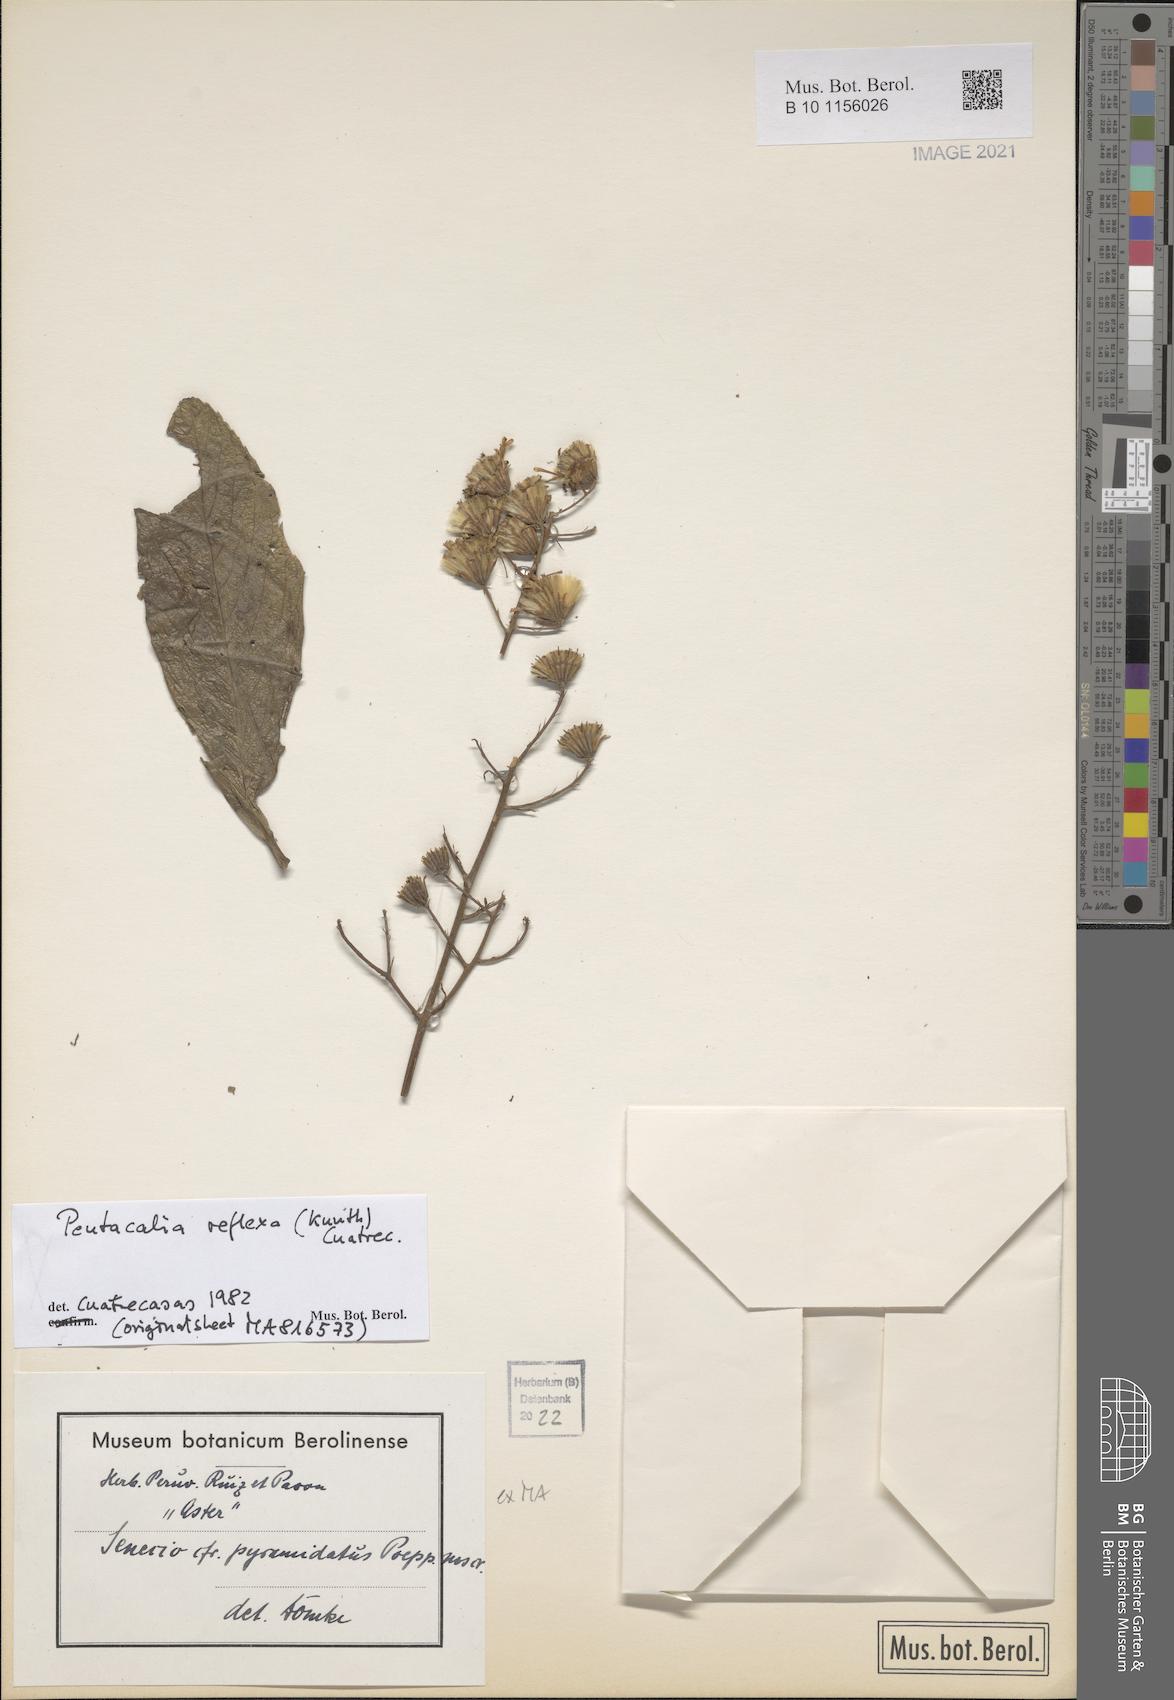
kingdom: Plantae
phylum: Tracheophyta
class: Magnoliopsida
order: Asterales
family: Asteraceae
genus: Dendrophorbium
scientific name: Dendrophorbium reflexum
